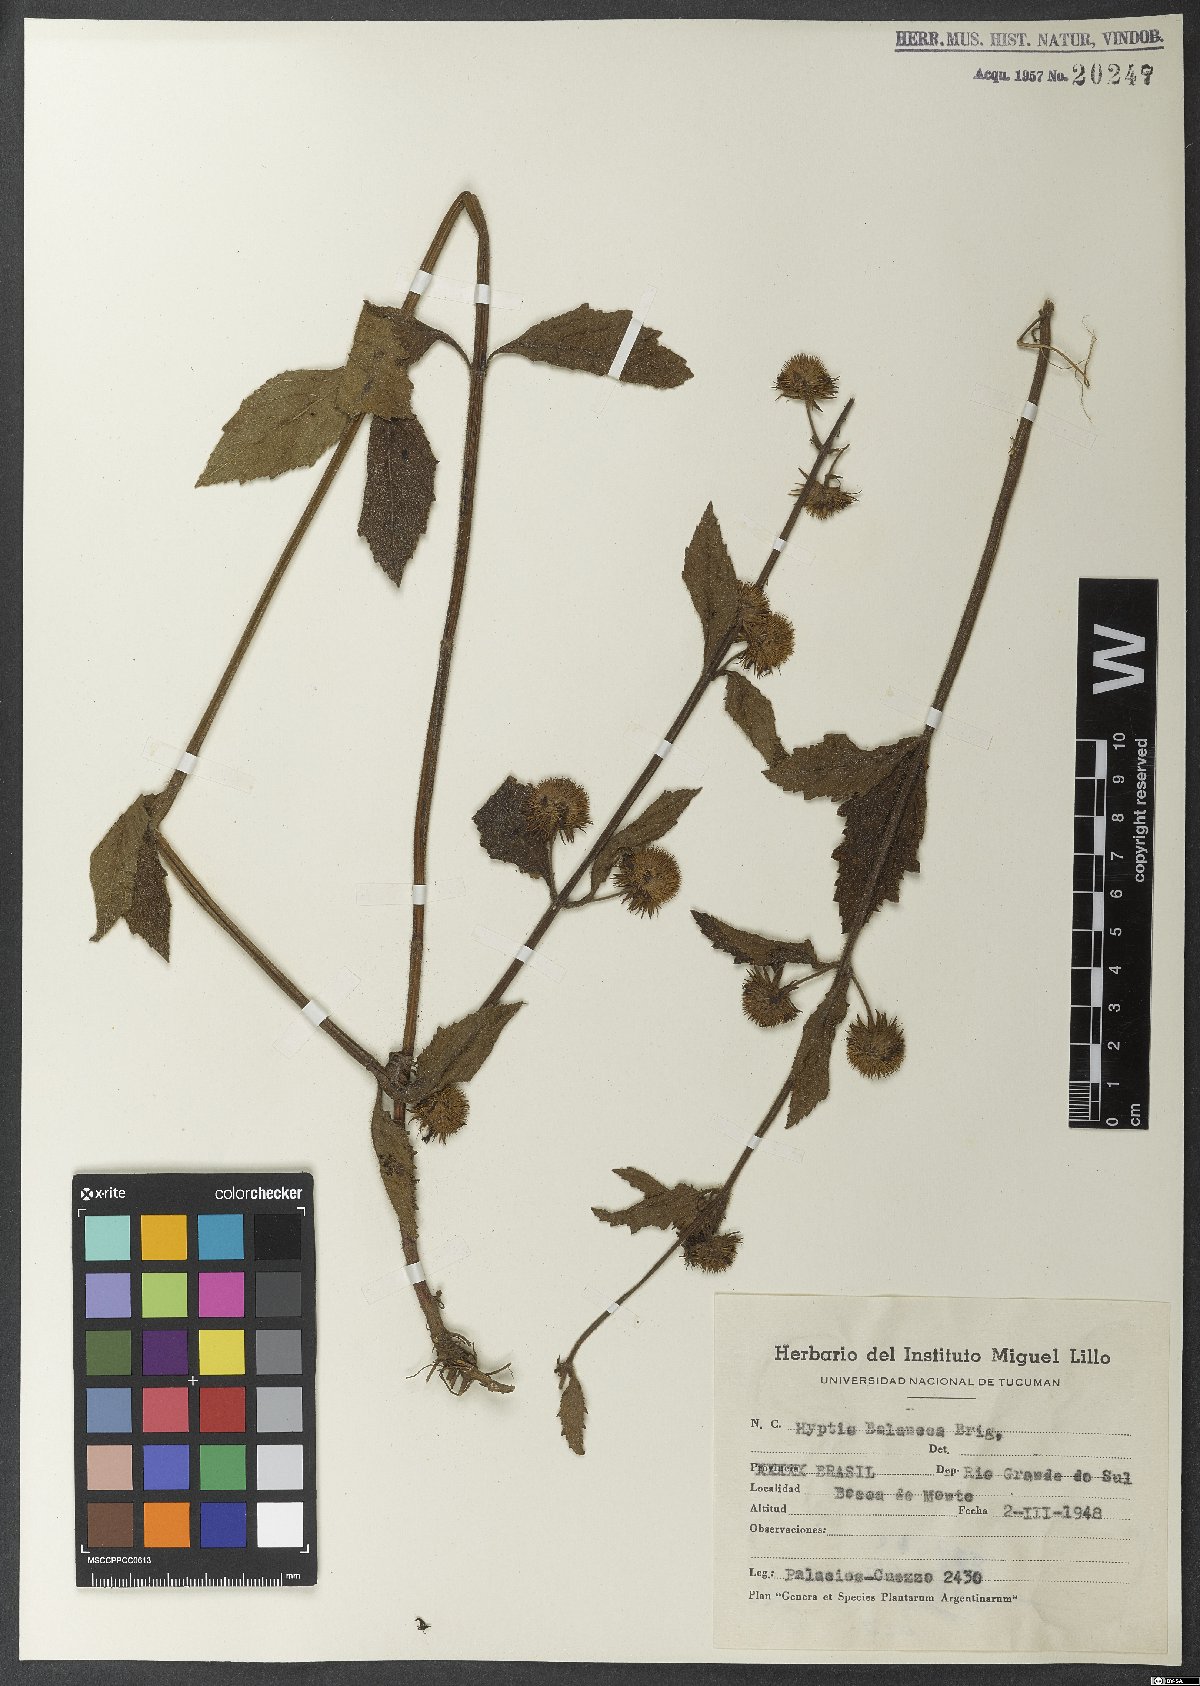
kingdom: Plantae
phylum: Tracheophyta
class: Magnoliopsida
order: Lamiales
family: Lamiaceae
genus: Hyptis
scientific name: Hyptis balansae
